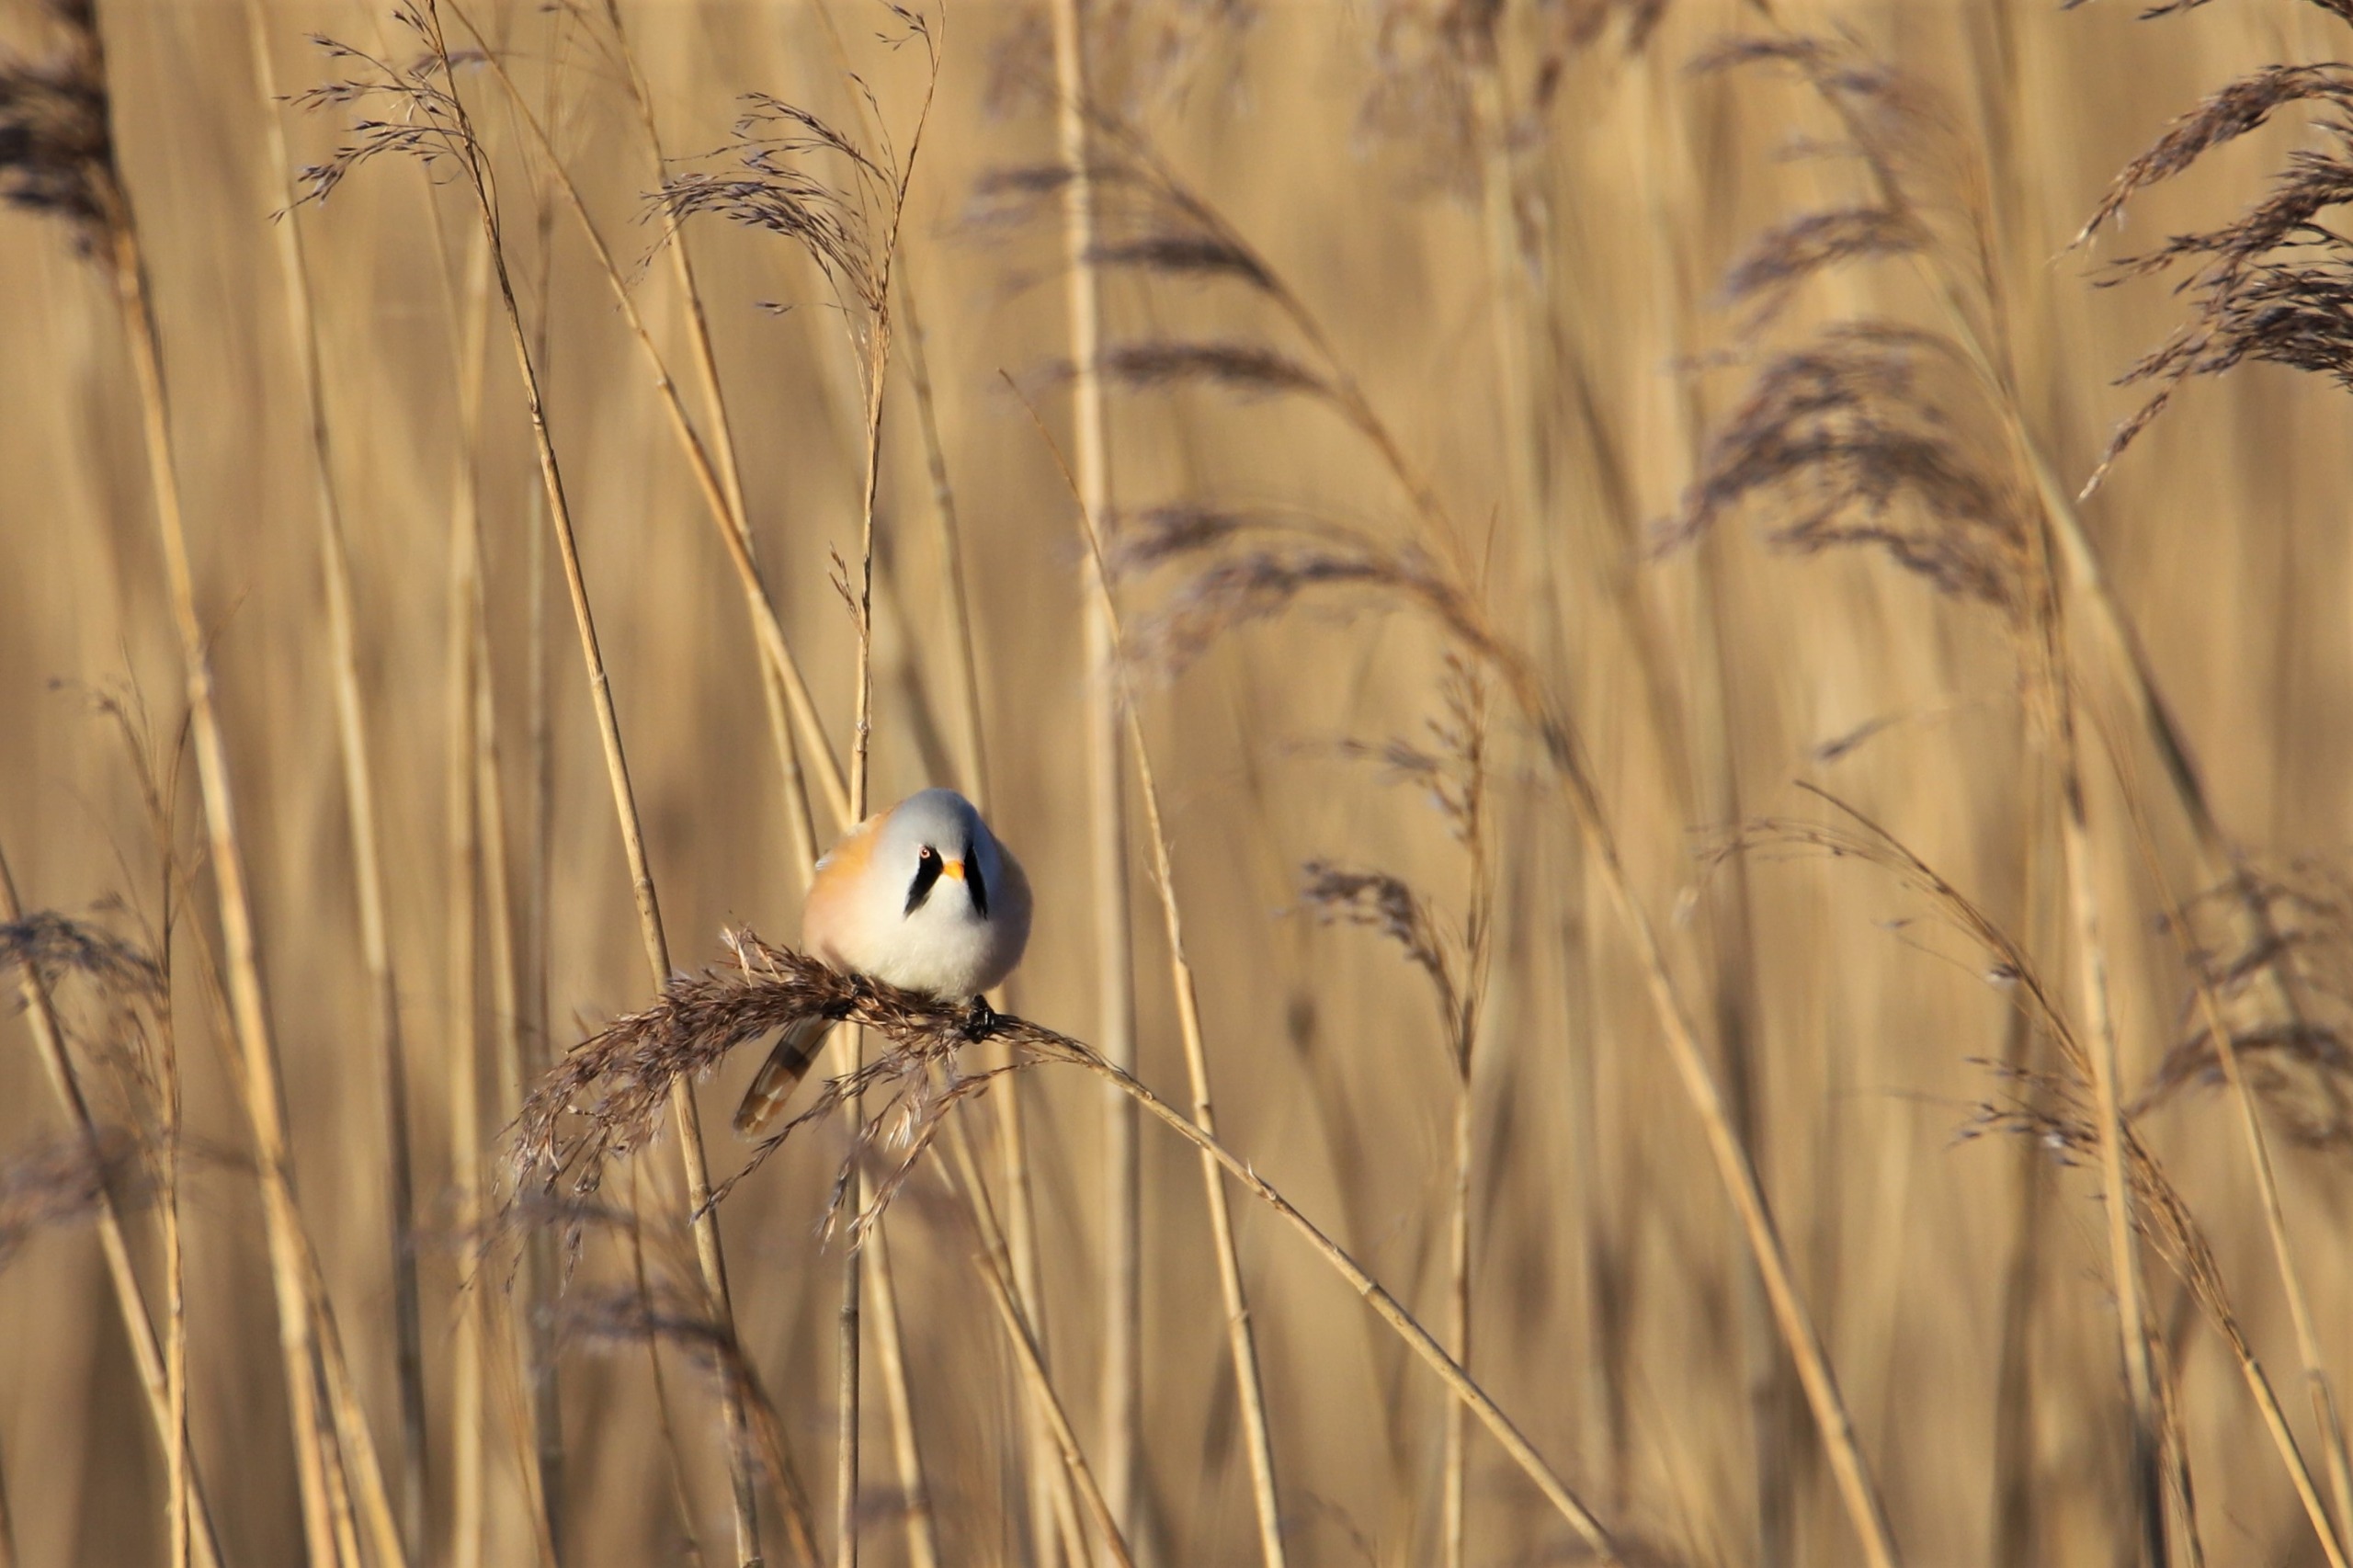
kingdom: Animalia
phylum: Chordata
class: Aves
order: Passeriformes
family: Panuridae
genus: Panurus
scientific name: Panurus biarmicus
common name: Skægmejse
